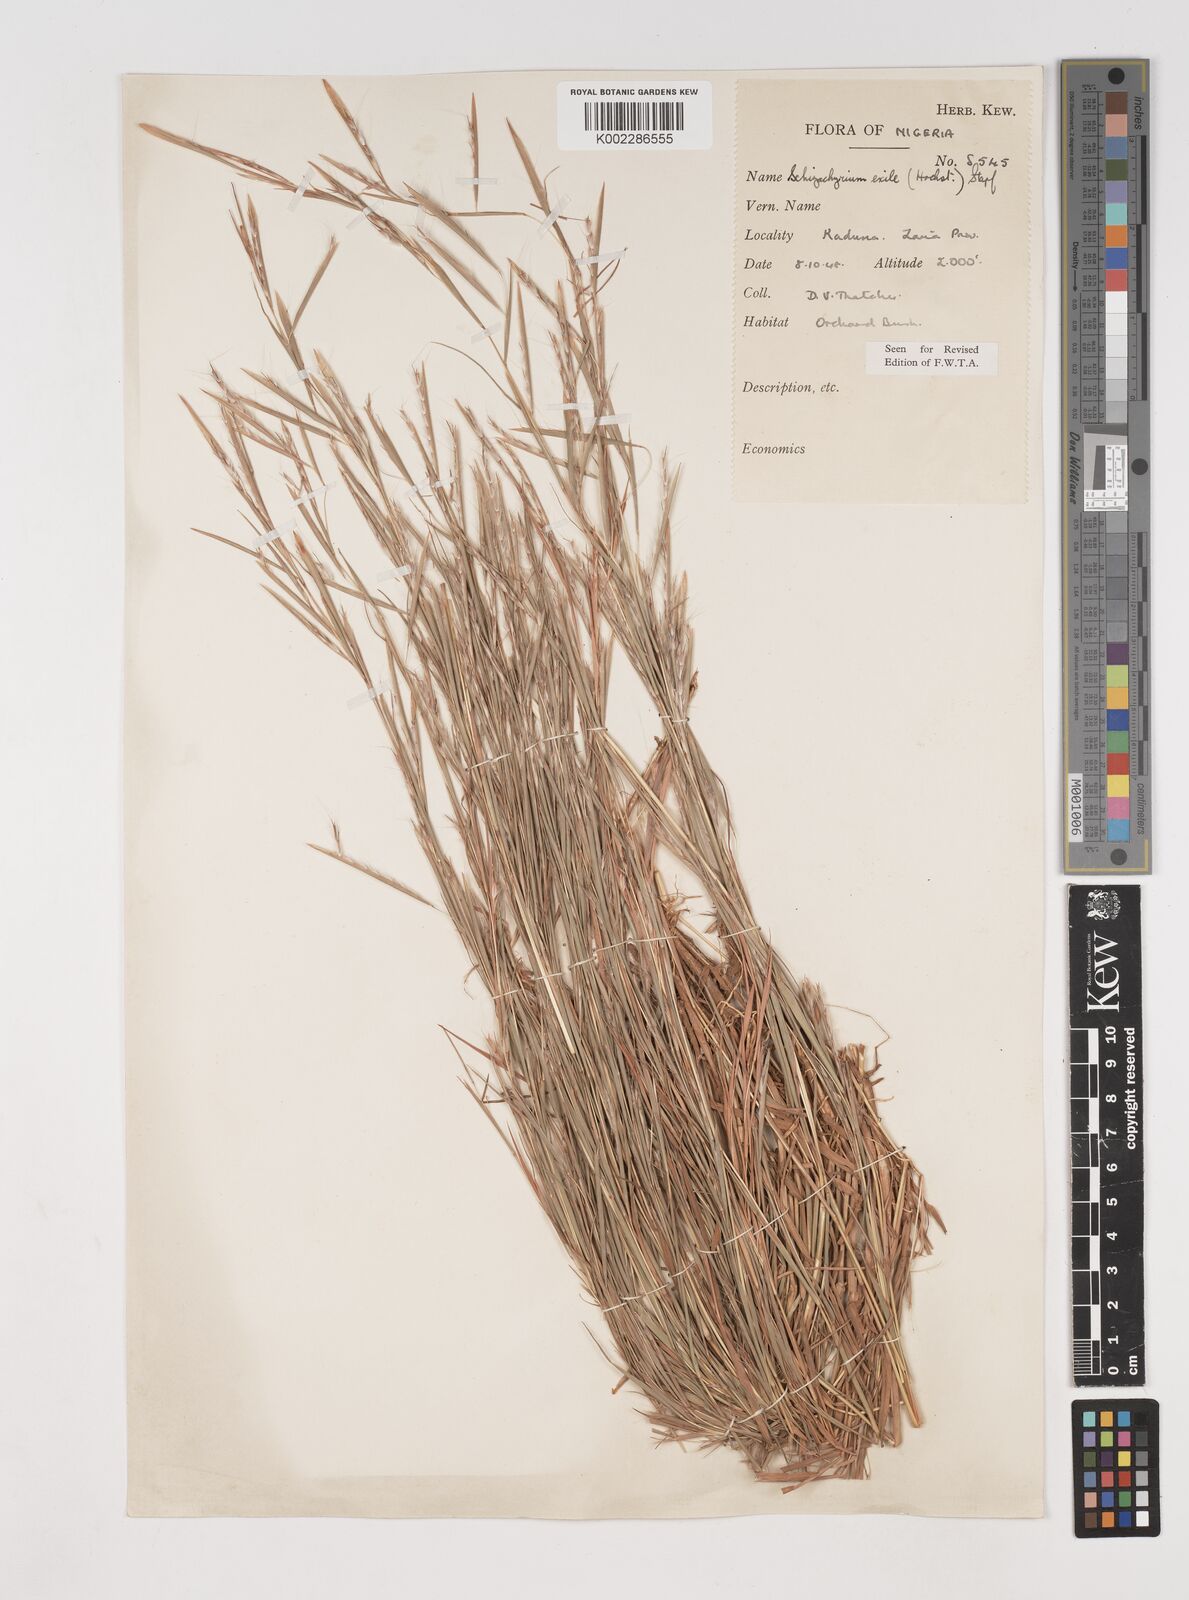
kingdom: Plantae
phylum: Tracheophyta
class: Liliopsida
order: Poales
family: Poaceae
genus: Schizachyrium
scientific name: Schizachyrium exile
